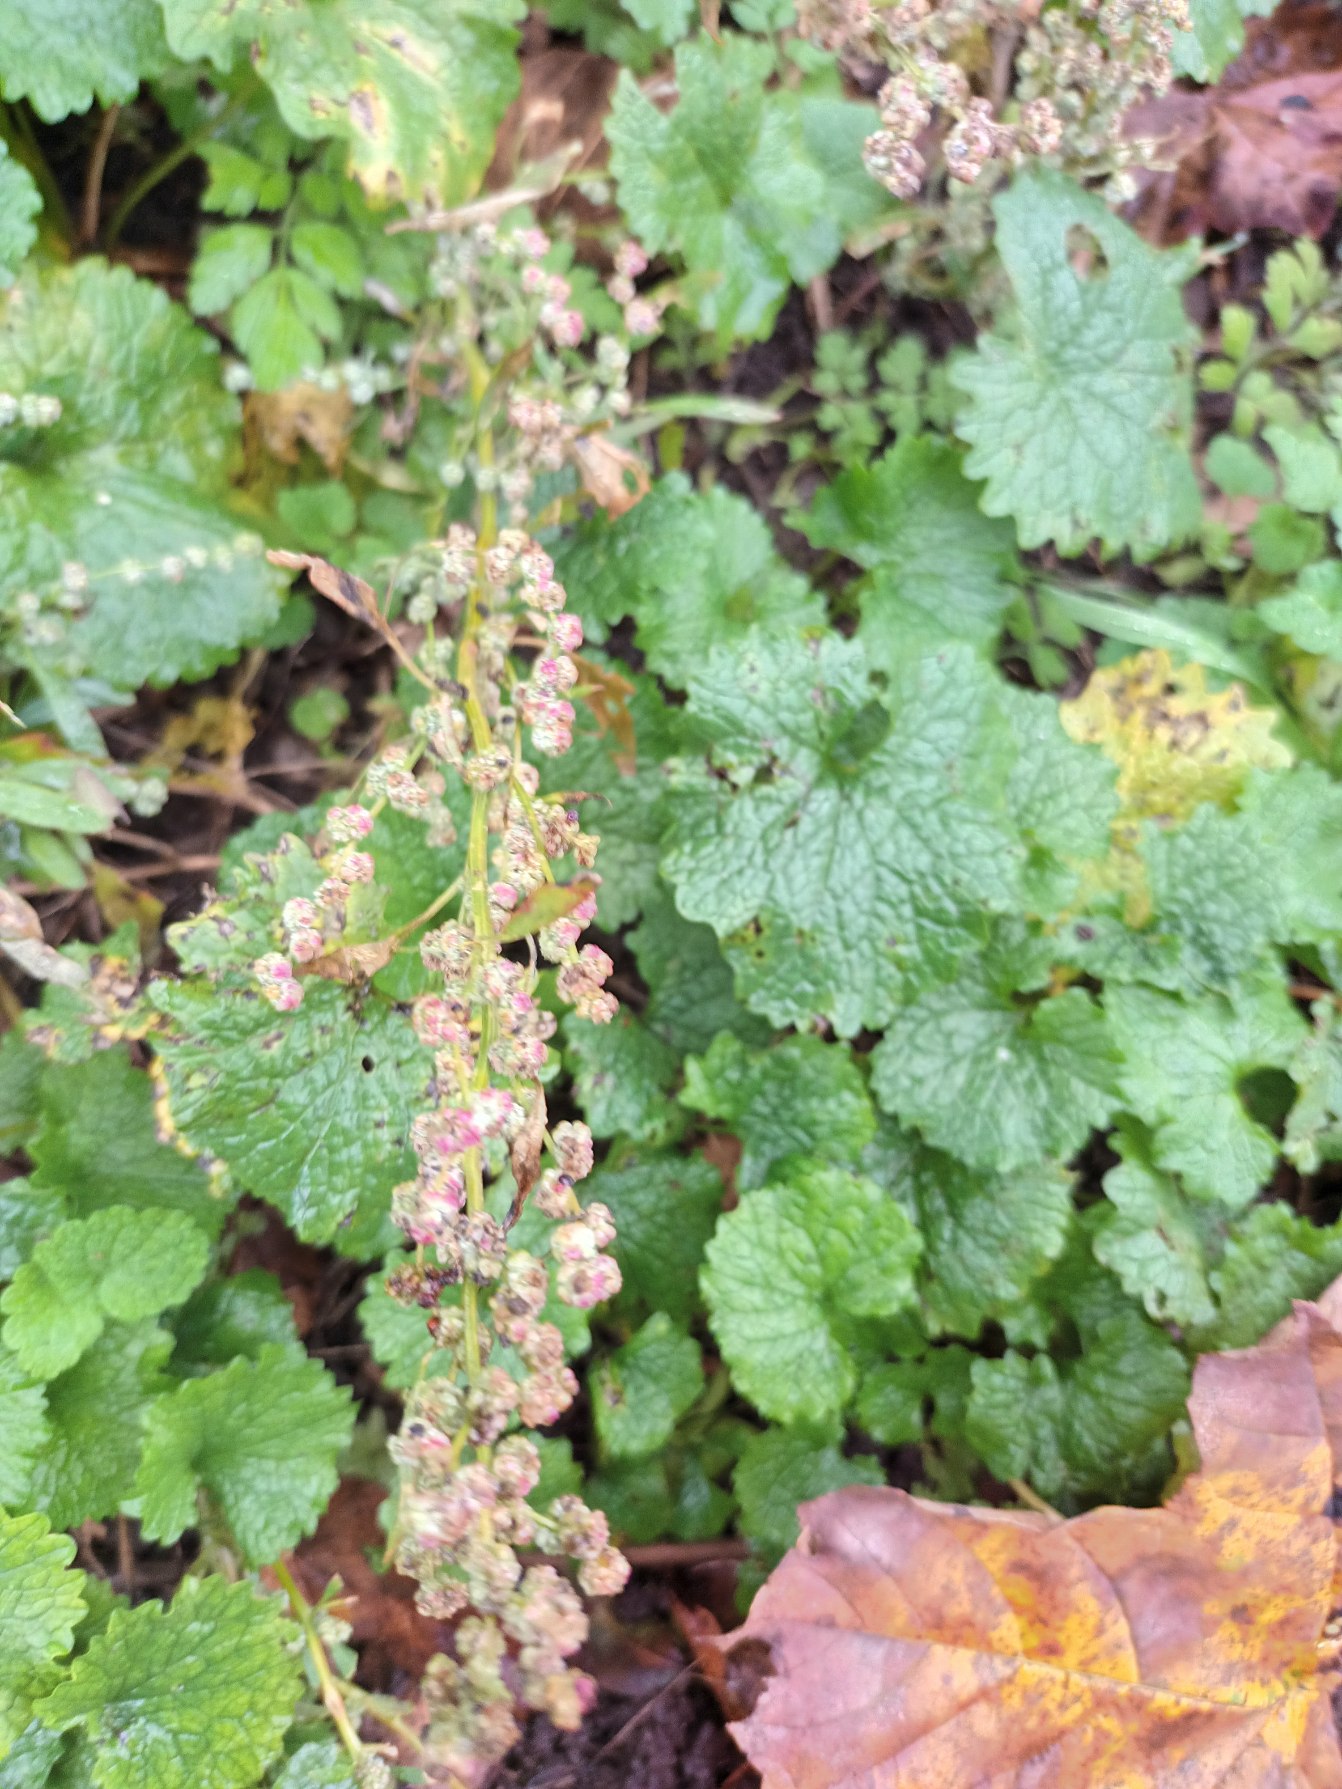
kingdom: Plantae
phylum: Tracheophyta
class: Magnoliopsida
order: Caryophyllales
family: Amaranthaceae
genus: Chenopodium
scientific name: Chenopodium album
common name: Hvidmelet gåsefod
